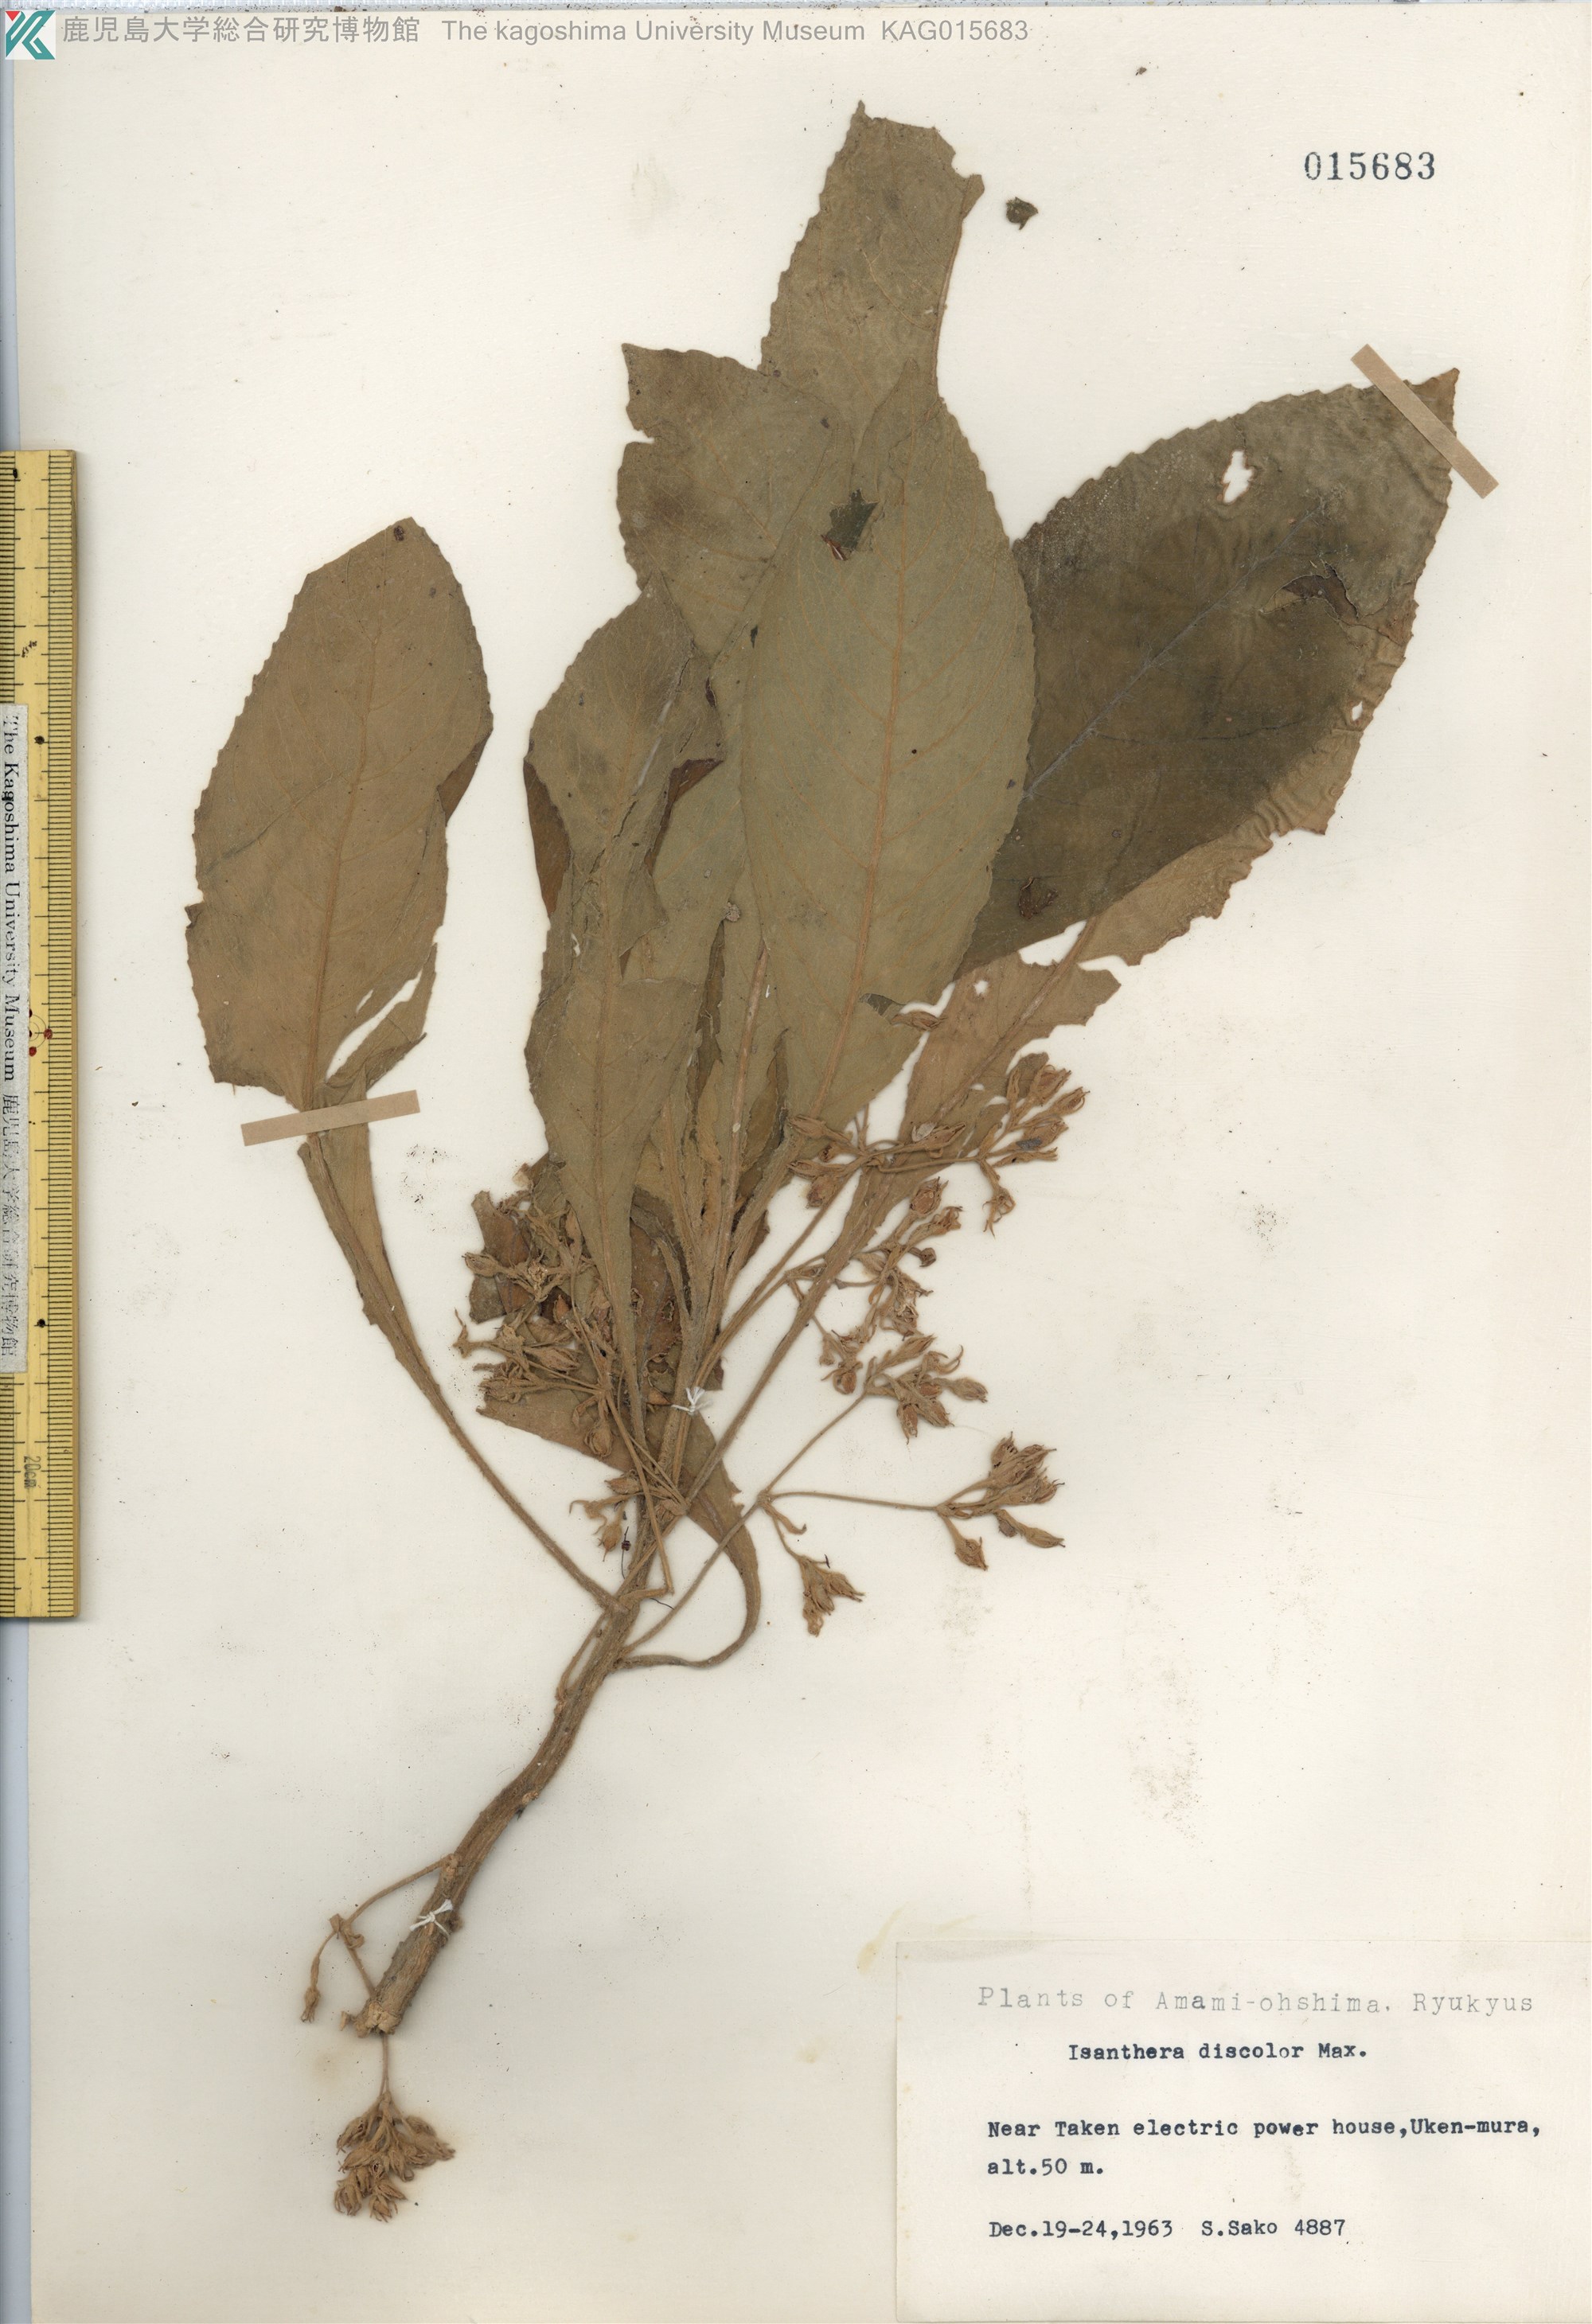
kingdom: Plantae
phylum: Tracheophyta
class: Magnoliopsida
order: Lamiales
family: Gesneriaceae
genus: Rhynchotechum
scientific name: Rhynchotechum discolor
